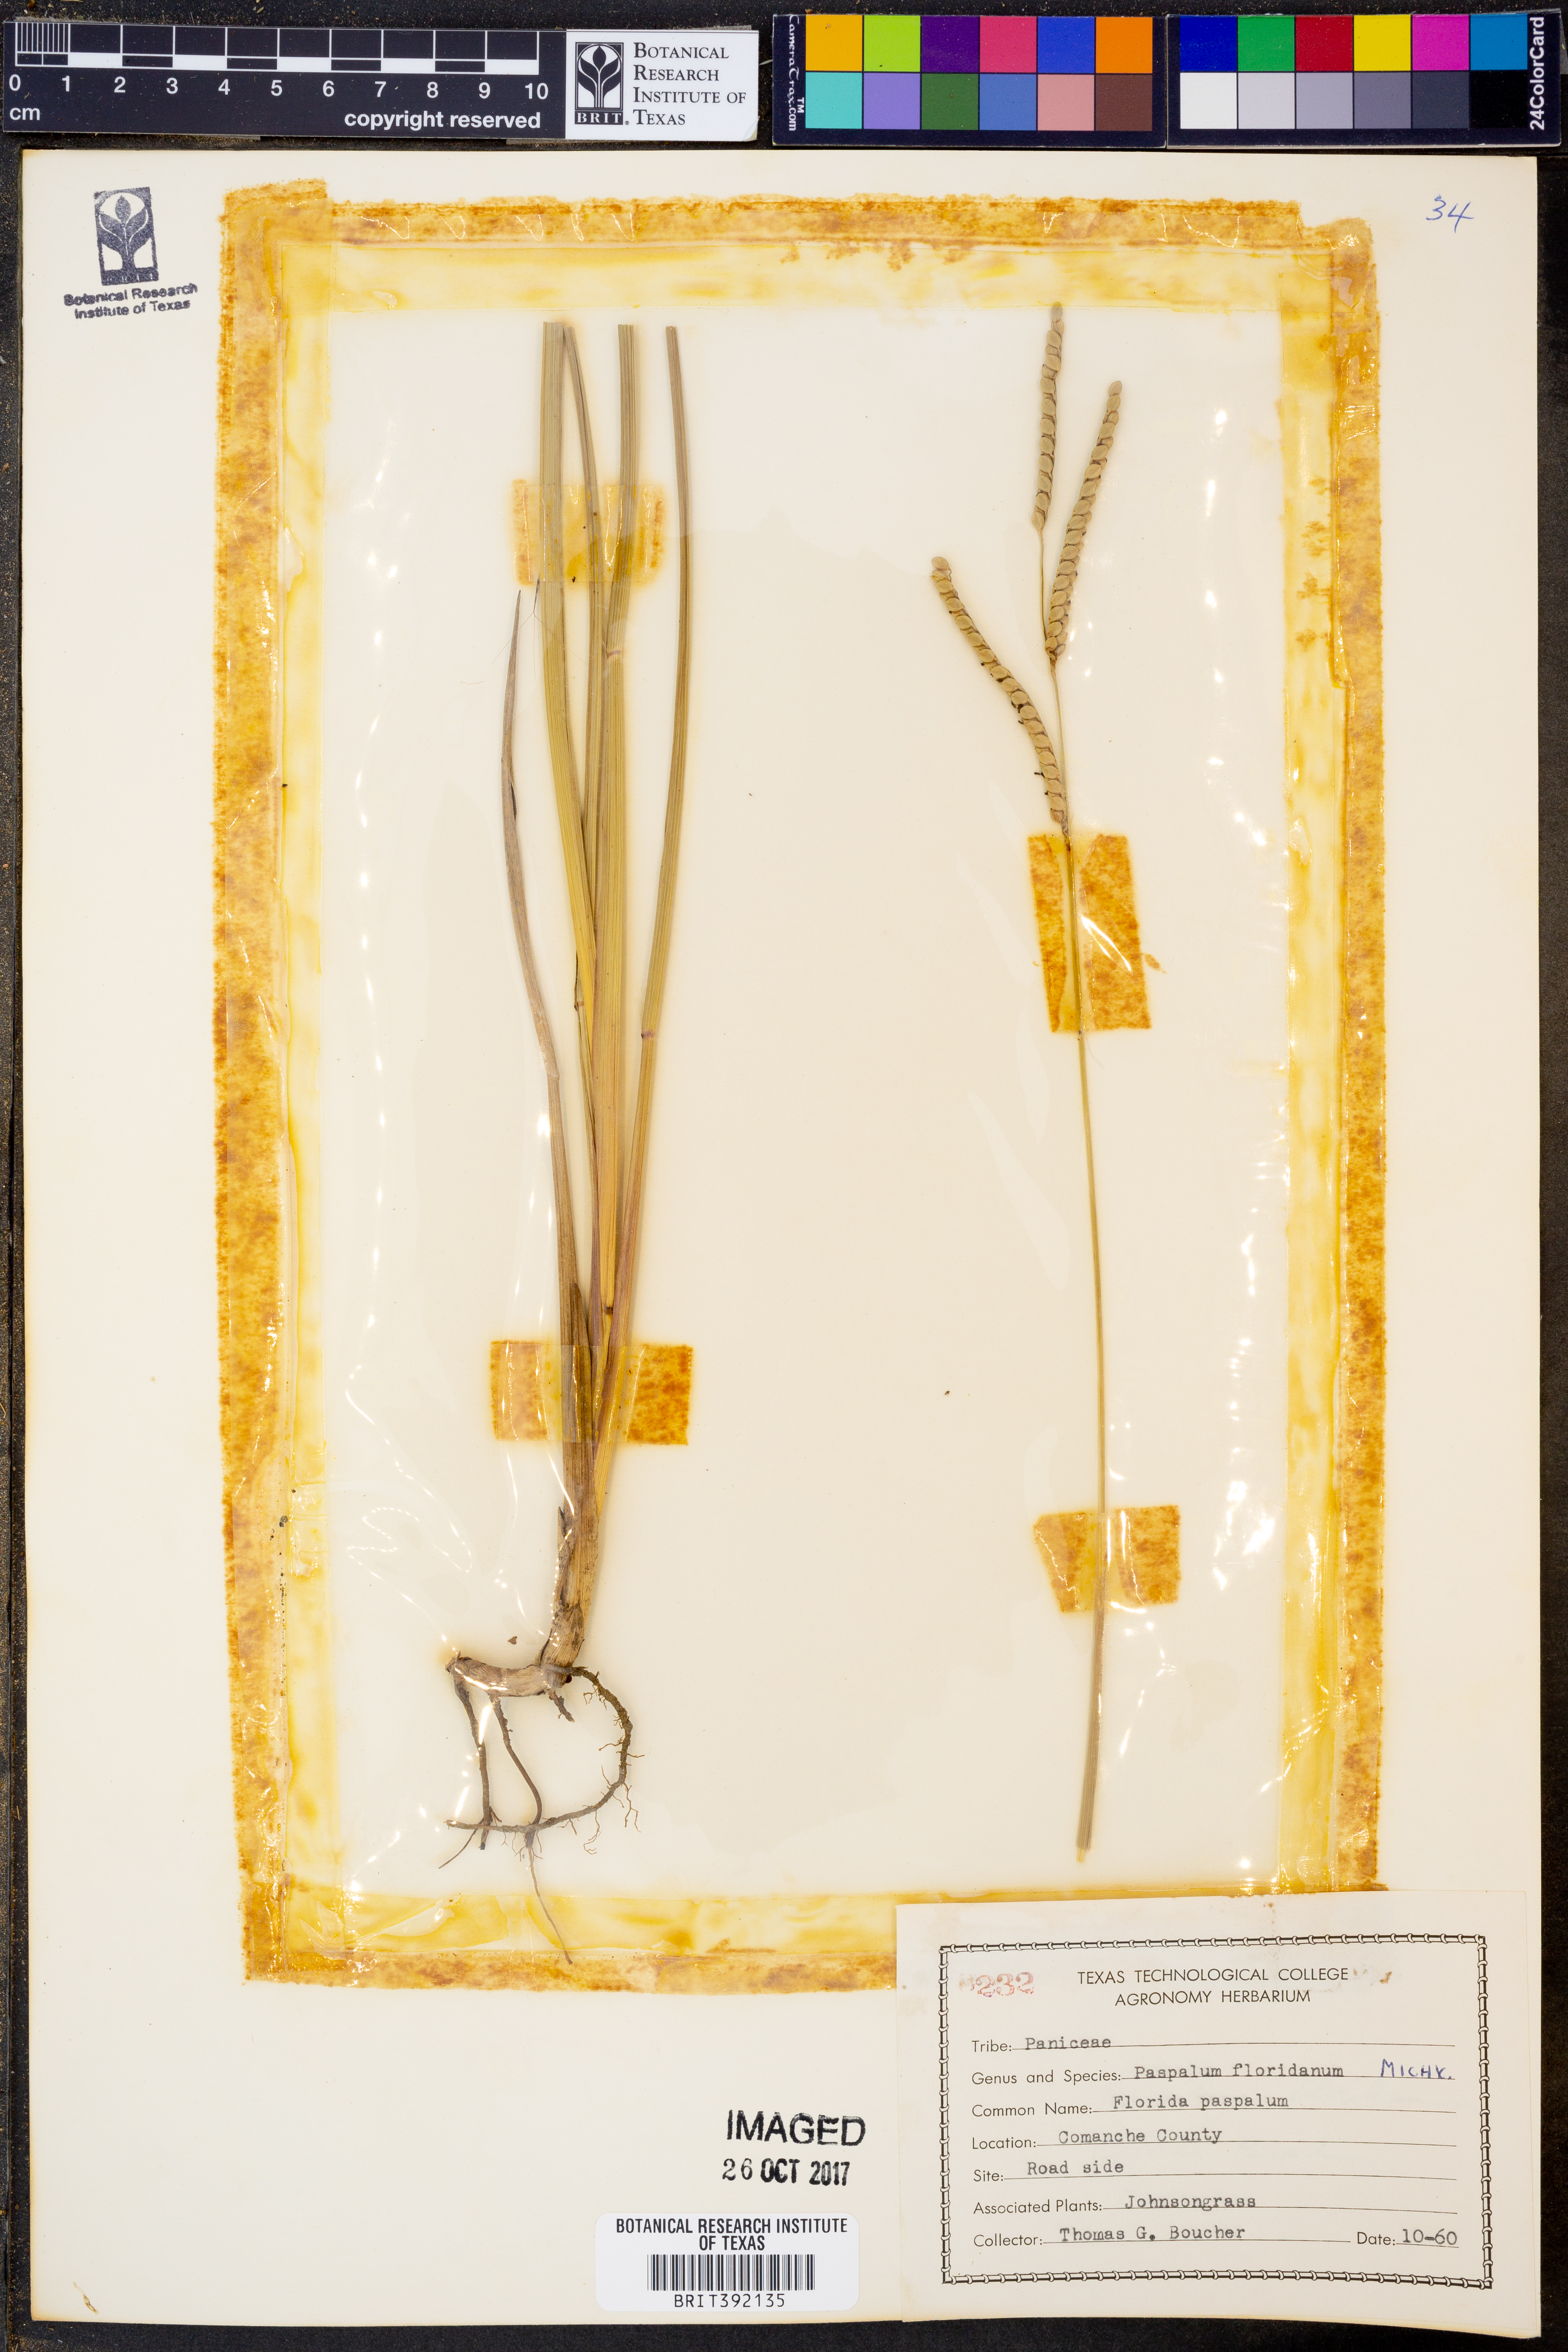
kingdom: Plantae
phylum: Tracheophyta
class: Liliopsida
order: Poales
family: Poaceae
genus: Paspalum
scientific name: Paspalum floridanum
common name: Florida paspalum
